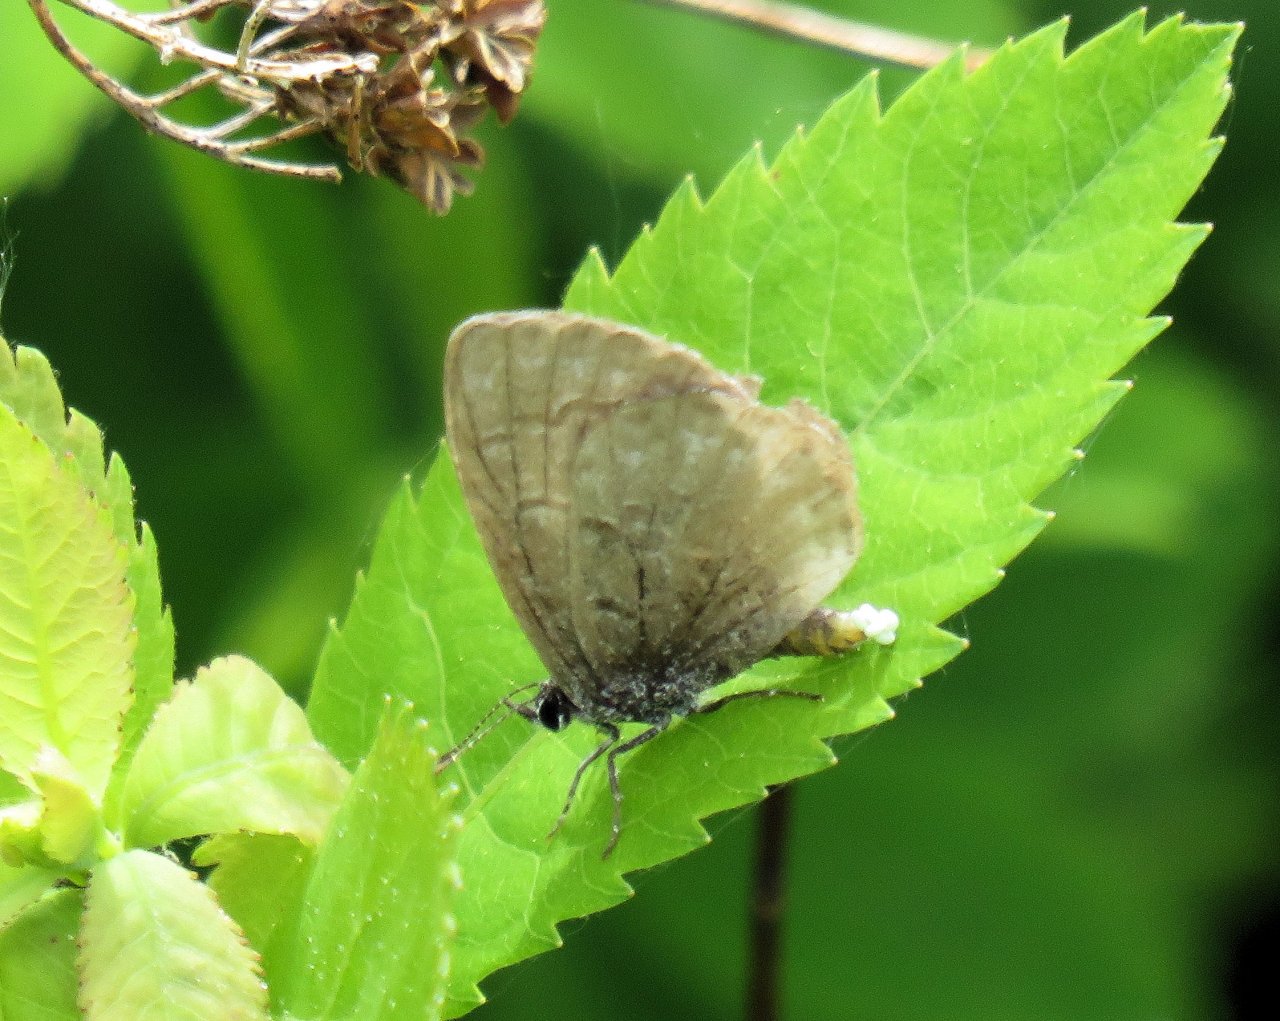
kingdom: Animalia
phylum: Arthropoda
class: Insecta
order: Lepidoptera
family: Lycaenidae
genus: Celastrina
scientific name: Celastrina lucia
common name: Northern Spring Azure
